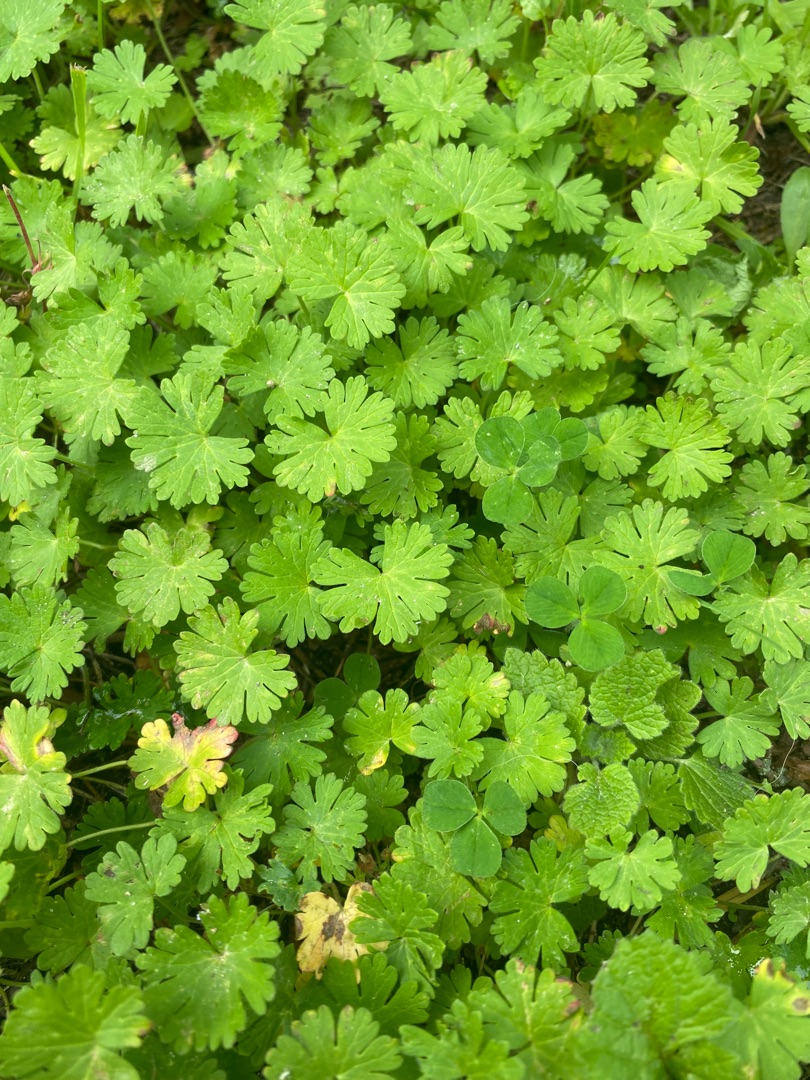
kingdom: Plantae
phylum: Tracheophyta
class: Magnoliopsida
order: Geraniales
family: Geraniaceae
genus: Geranium
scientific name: Geranium
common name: Storkenæbslægten
